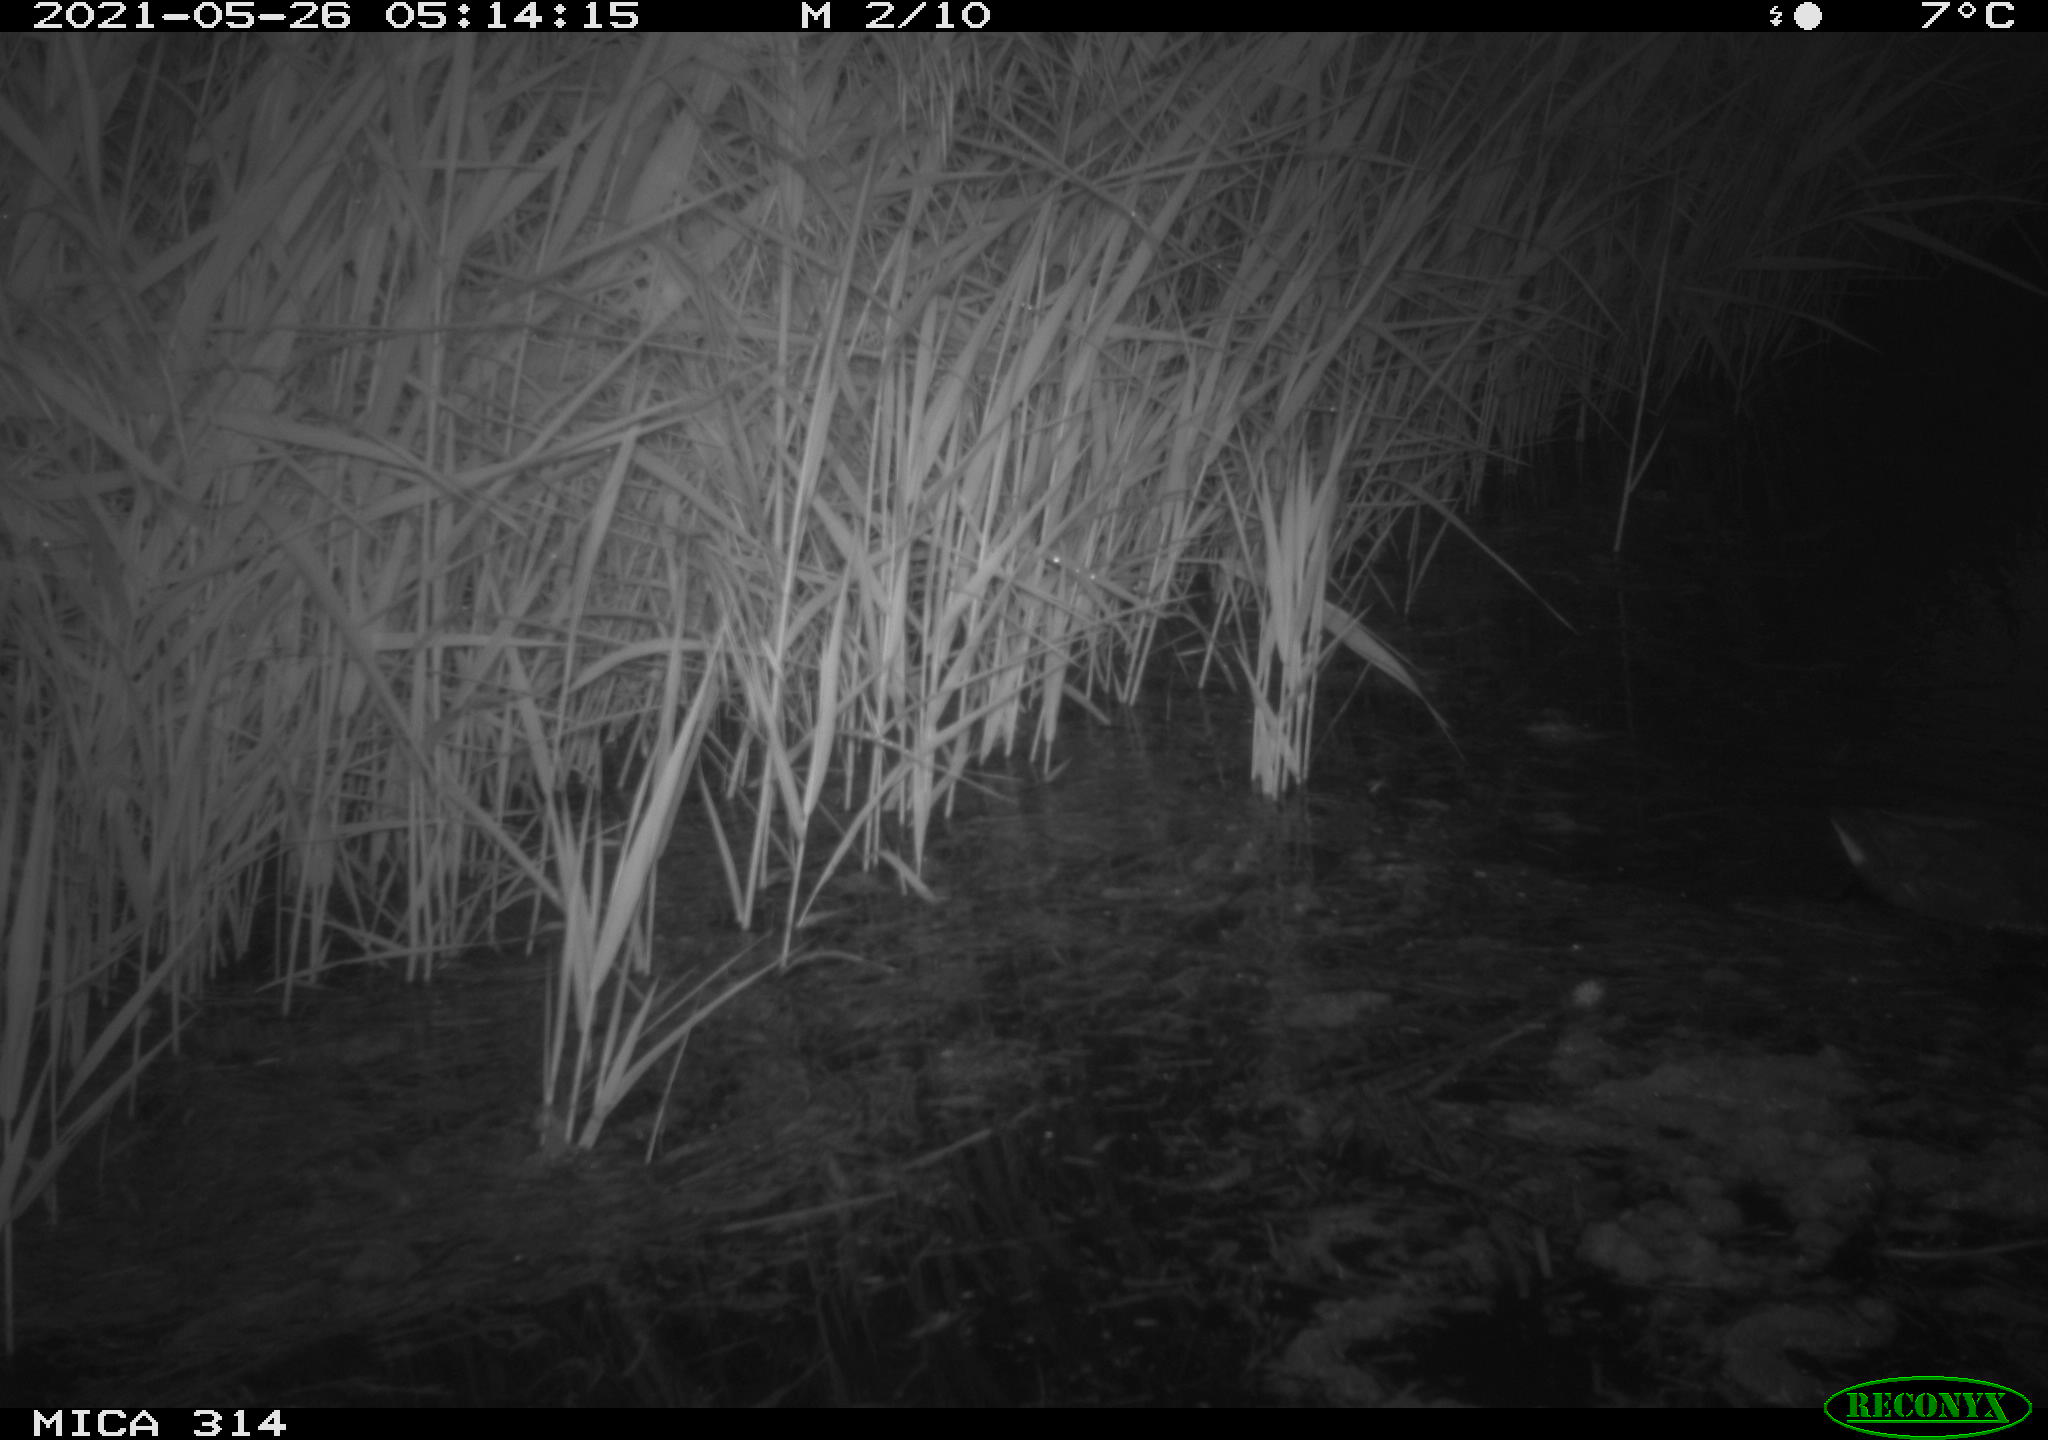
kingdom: Animalia
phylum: Chordata
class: Aves
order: Gruiformes
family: Rallidae
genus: Gallinula
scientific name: Gallinula chloropus
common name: Common moorhen
